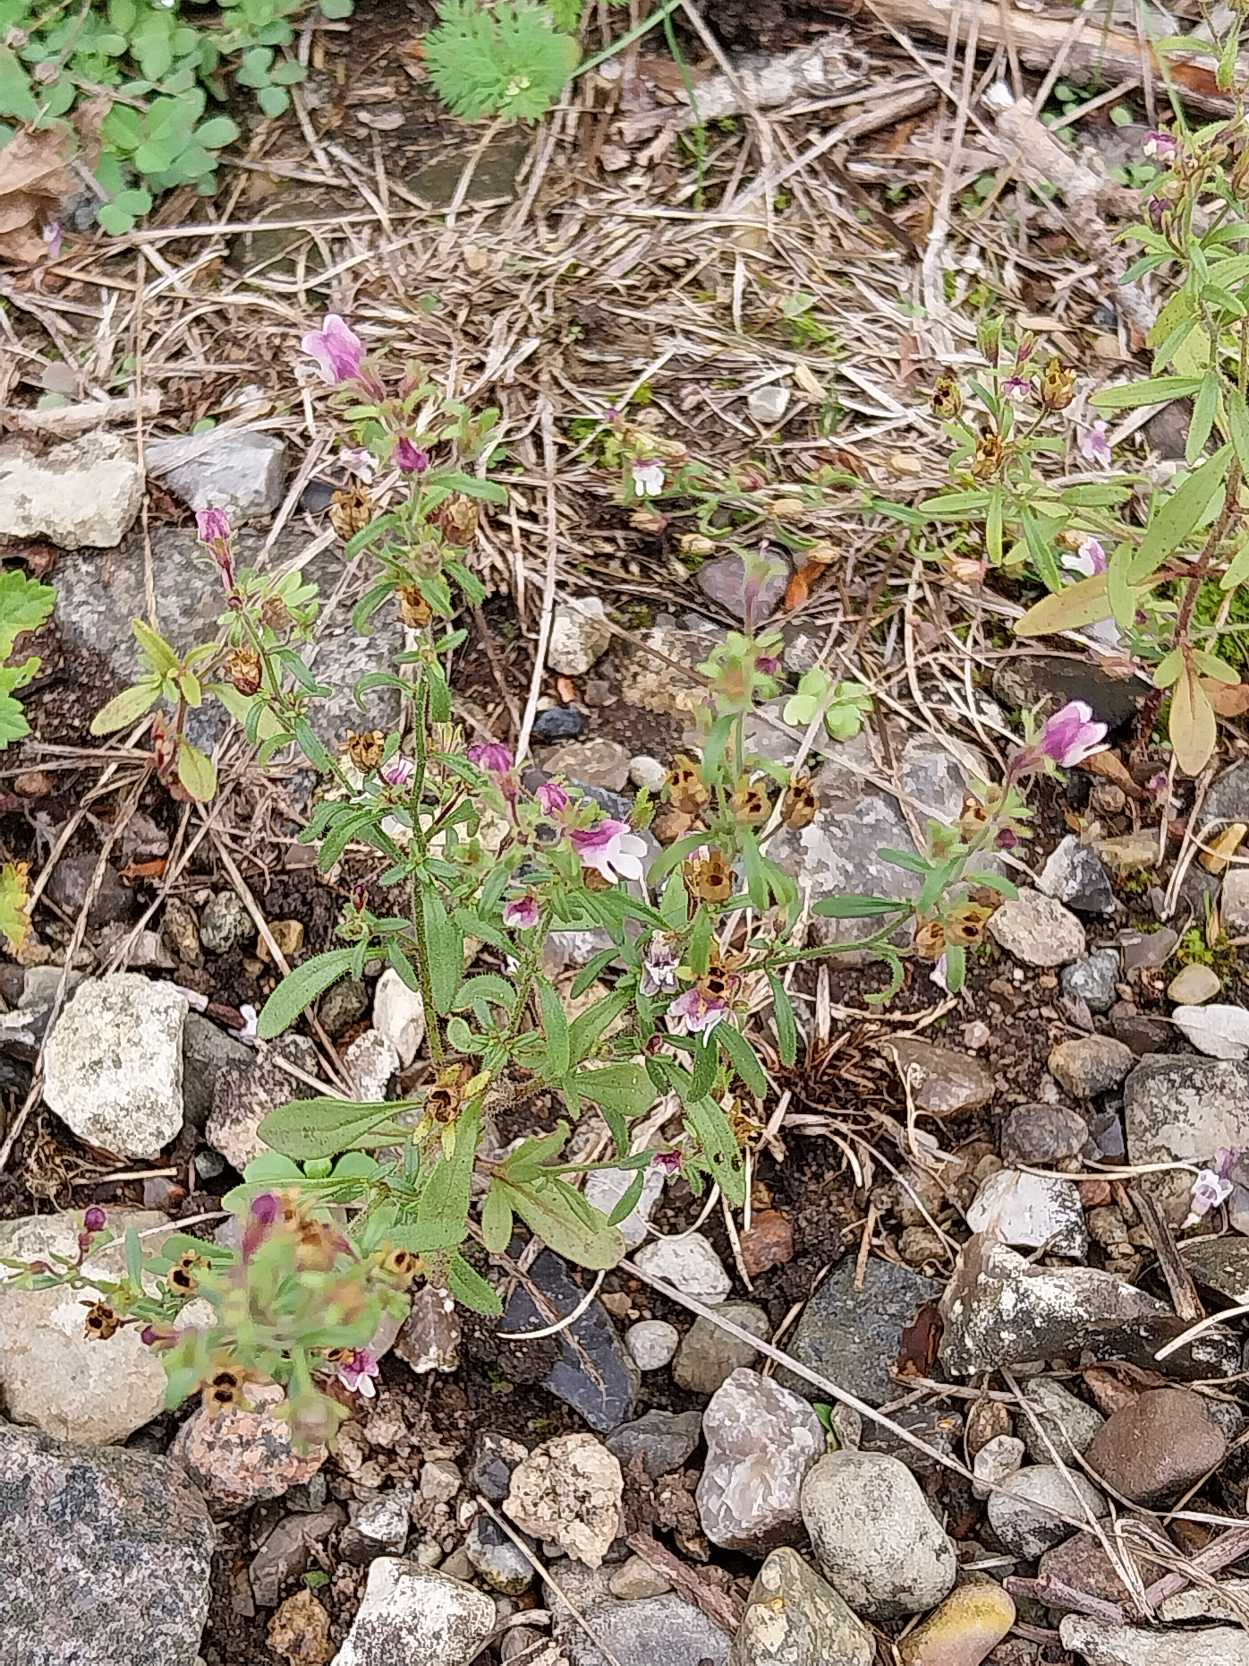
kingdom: Plantae
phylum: Tracheophyta
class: Magnoliopsida
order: Lamiales
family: Plantaginaceae
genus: Chaenorhinum
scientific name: Chaenorhinum minus
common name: Liden torskemund
